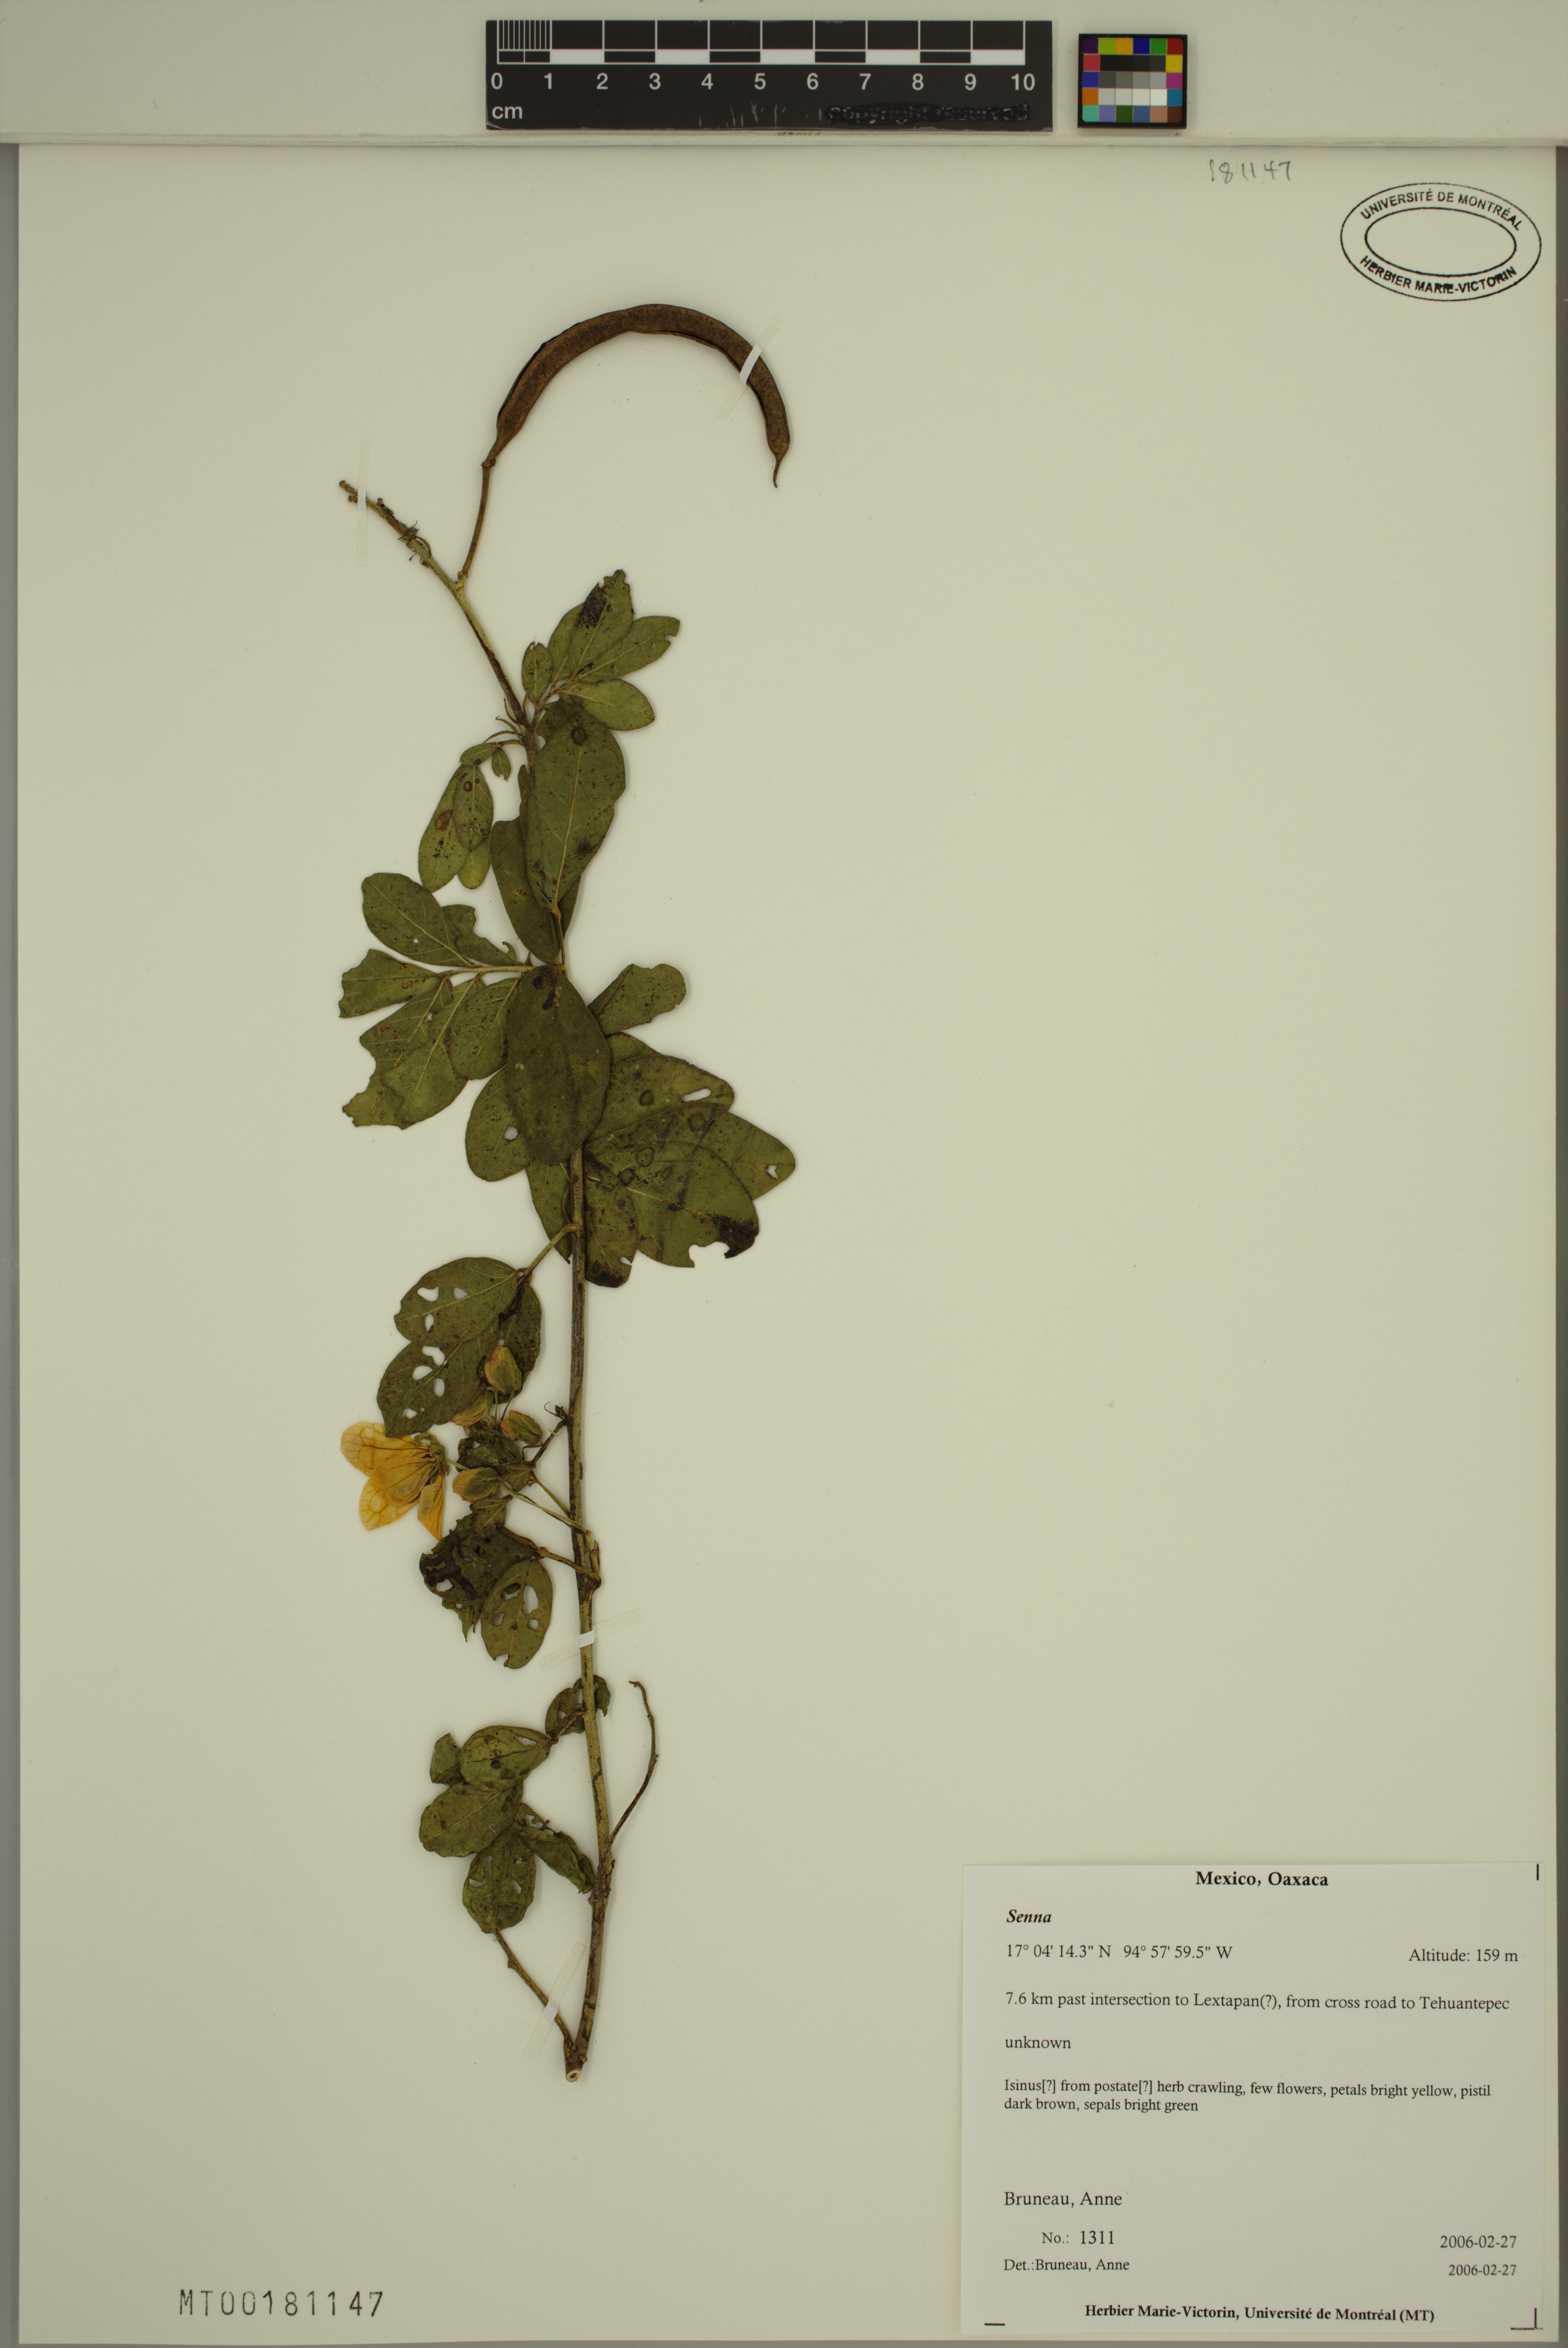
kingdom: Plantae
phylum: Tracheophyta
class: Magnoliopsida
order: Fabales
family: Fabaceae
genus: Senna
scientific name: Senna
